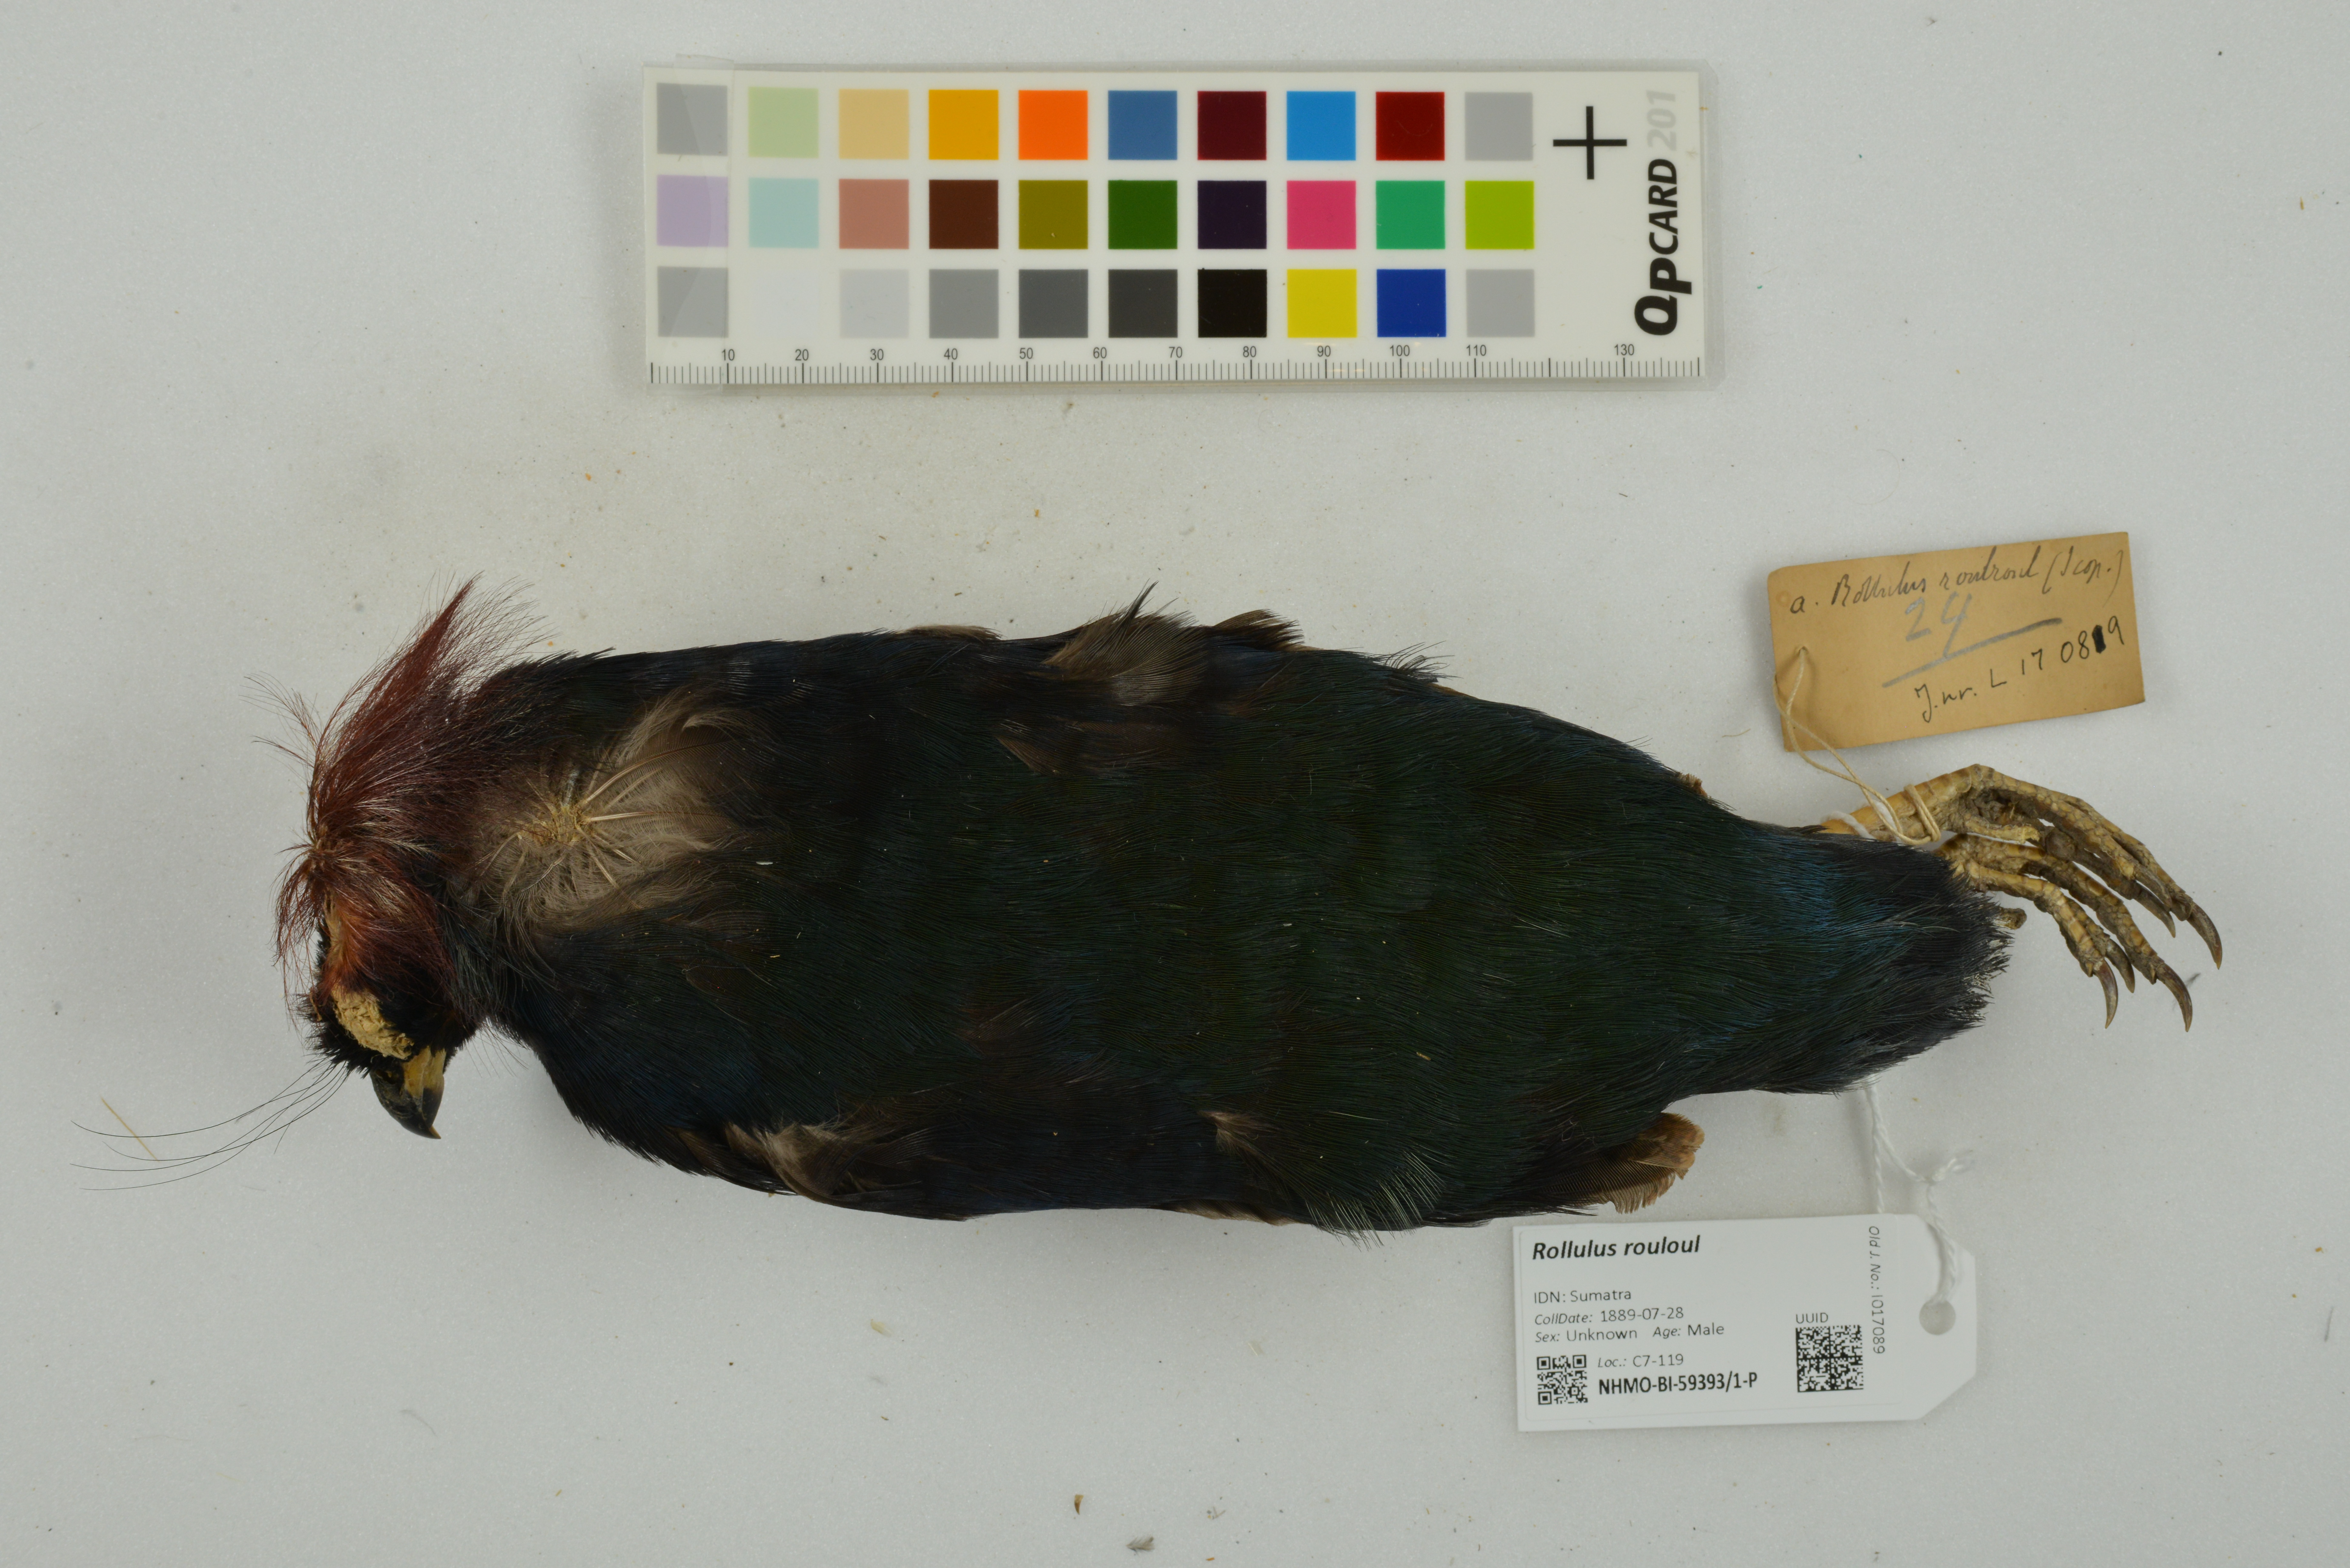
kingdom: Animalia
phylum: Chordata
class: Aves
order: Galliformes
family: Phasianidae
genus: Rollulus
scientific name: Rollulus rouloul
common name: Crested partridge
